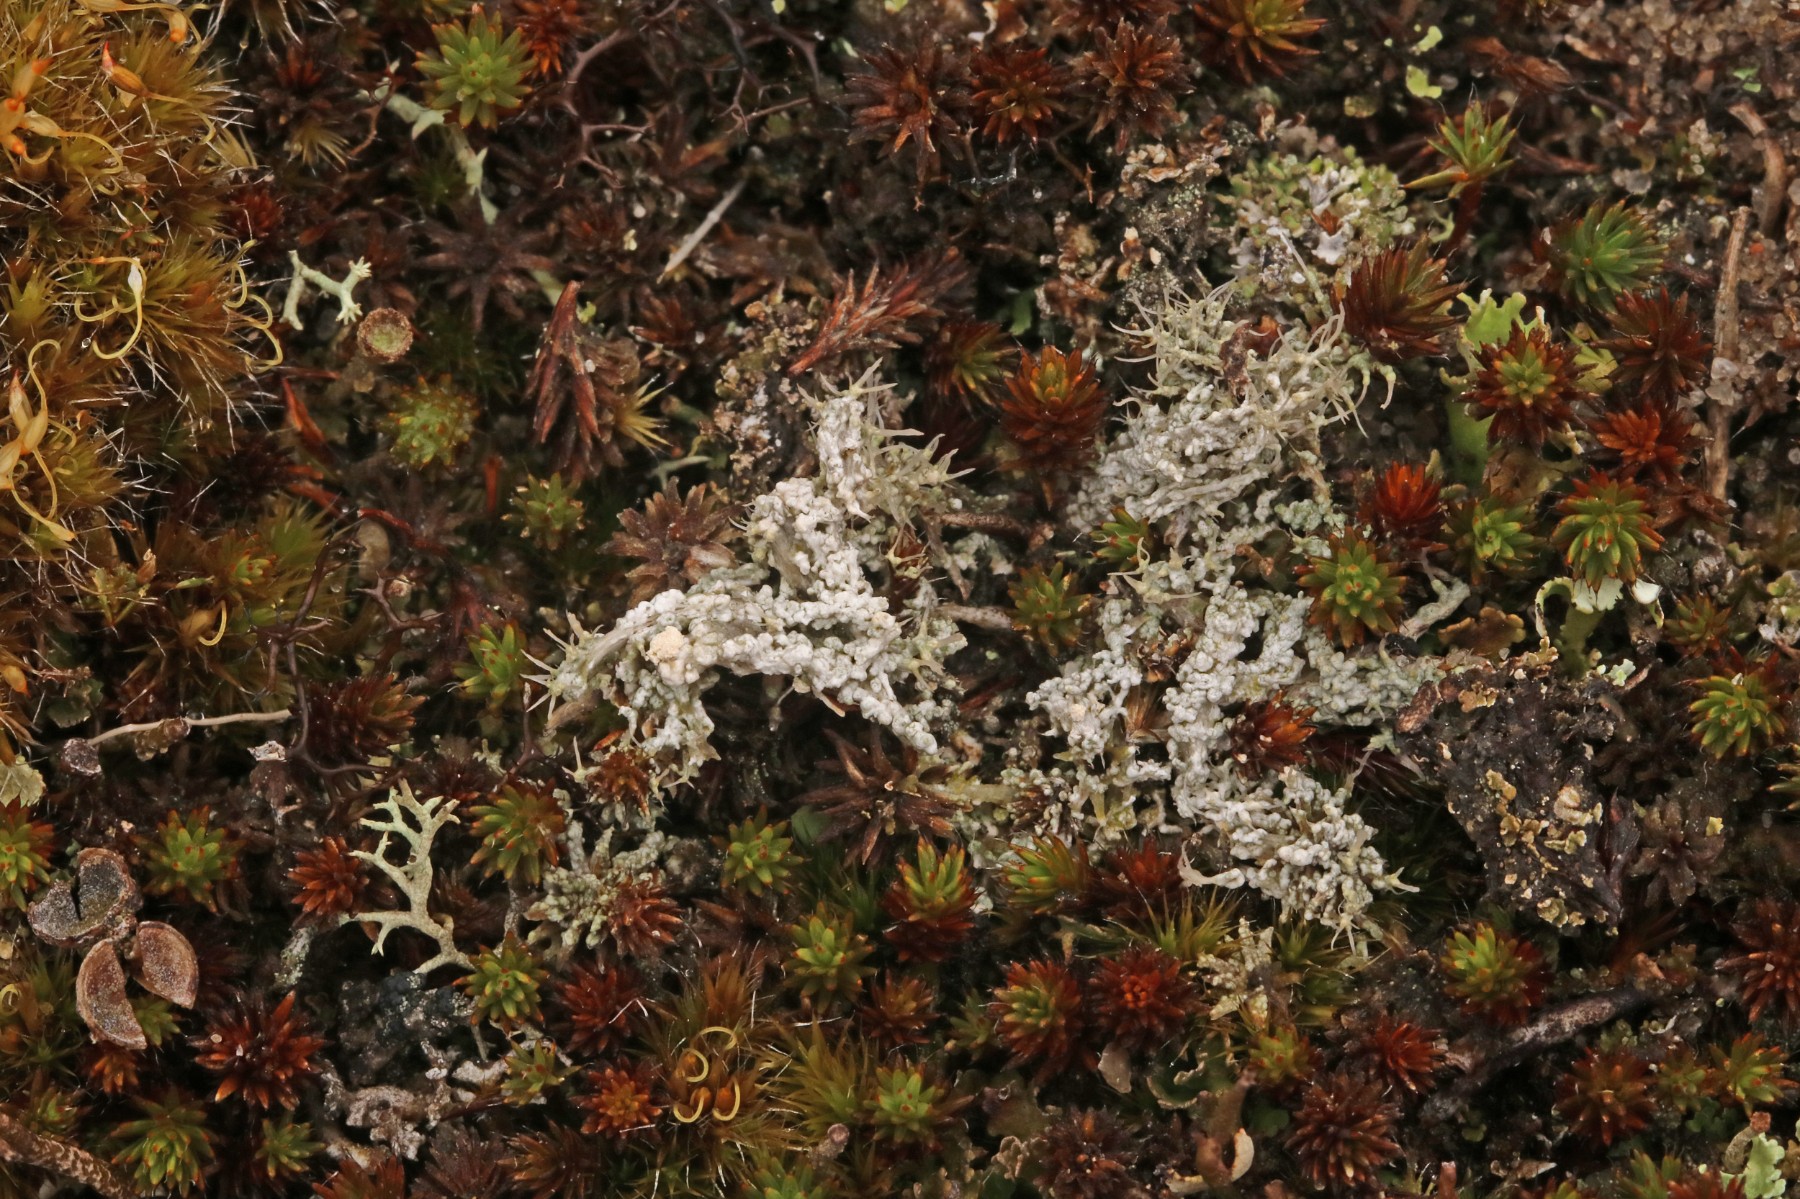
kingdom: Fungi
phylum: Ascomycota
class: Lecanoromycetes
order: Pertusariales
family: Ochrolechiaceae
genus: Ochrolechia
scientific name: Ochrolechia frigida
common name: fjeld-blegskivelav
